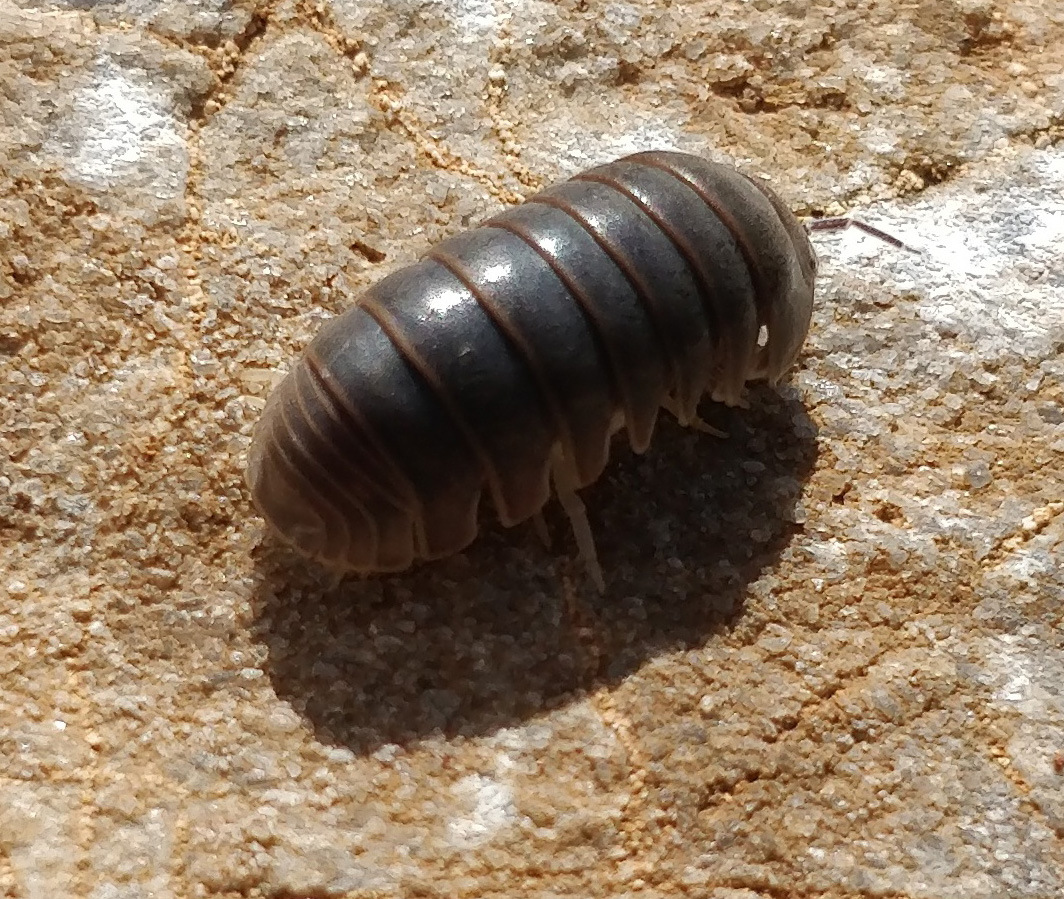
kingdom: Animalia
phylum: Arthropoda
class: Malacostraca
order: Isopoda
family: Armadillidae
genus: Armadillo
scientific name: Armadillo officinalis
